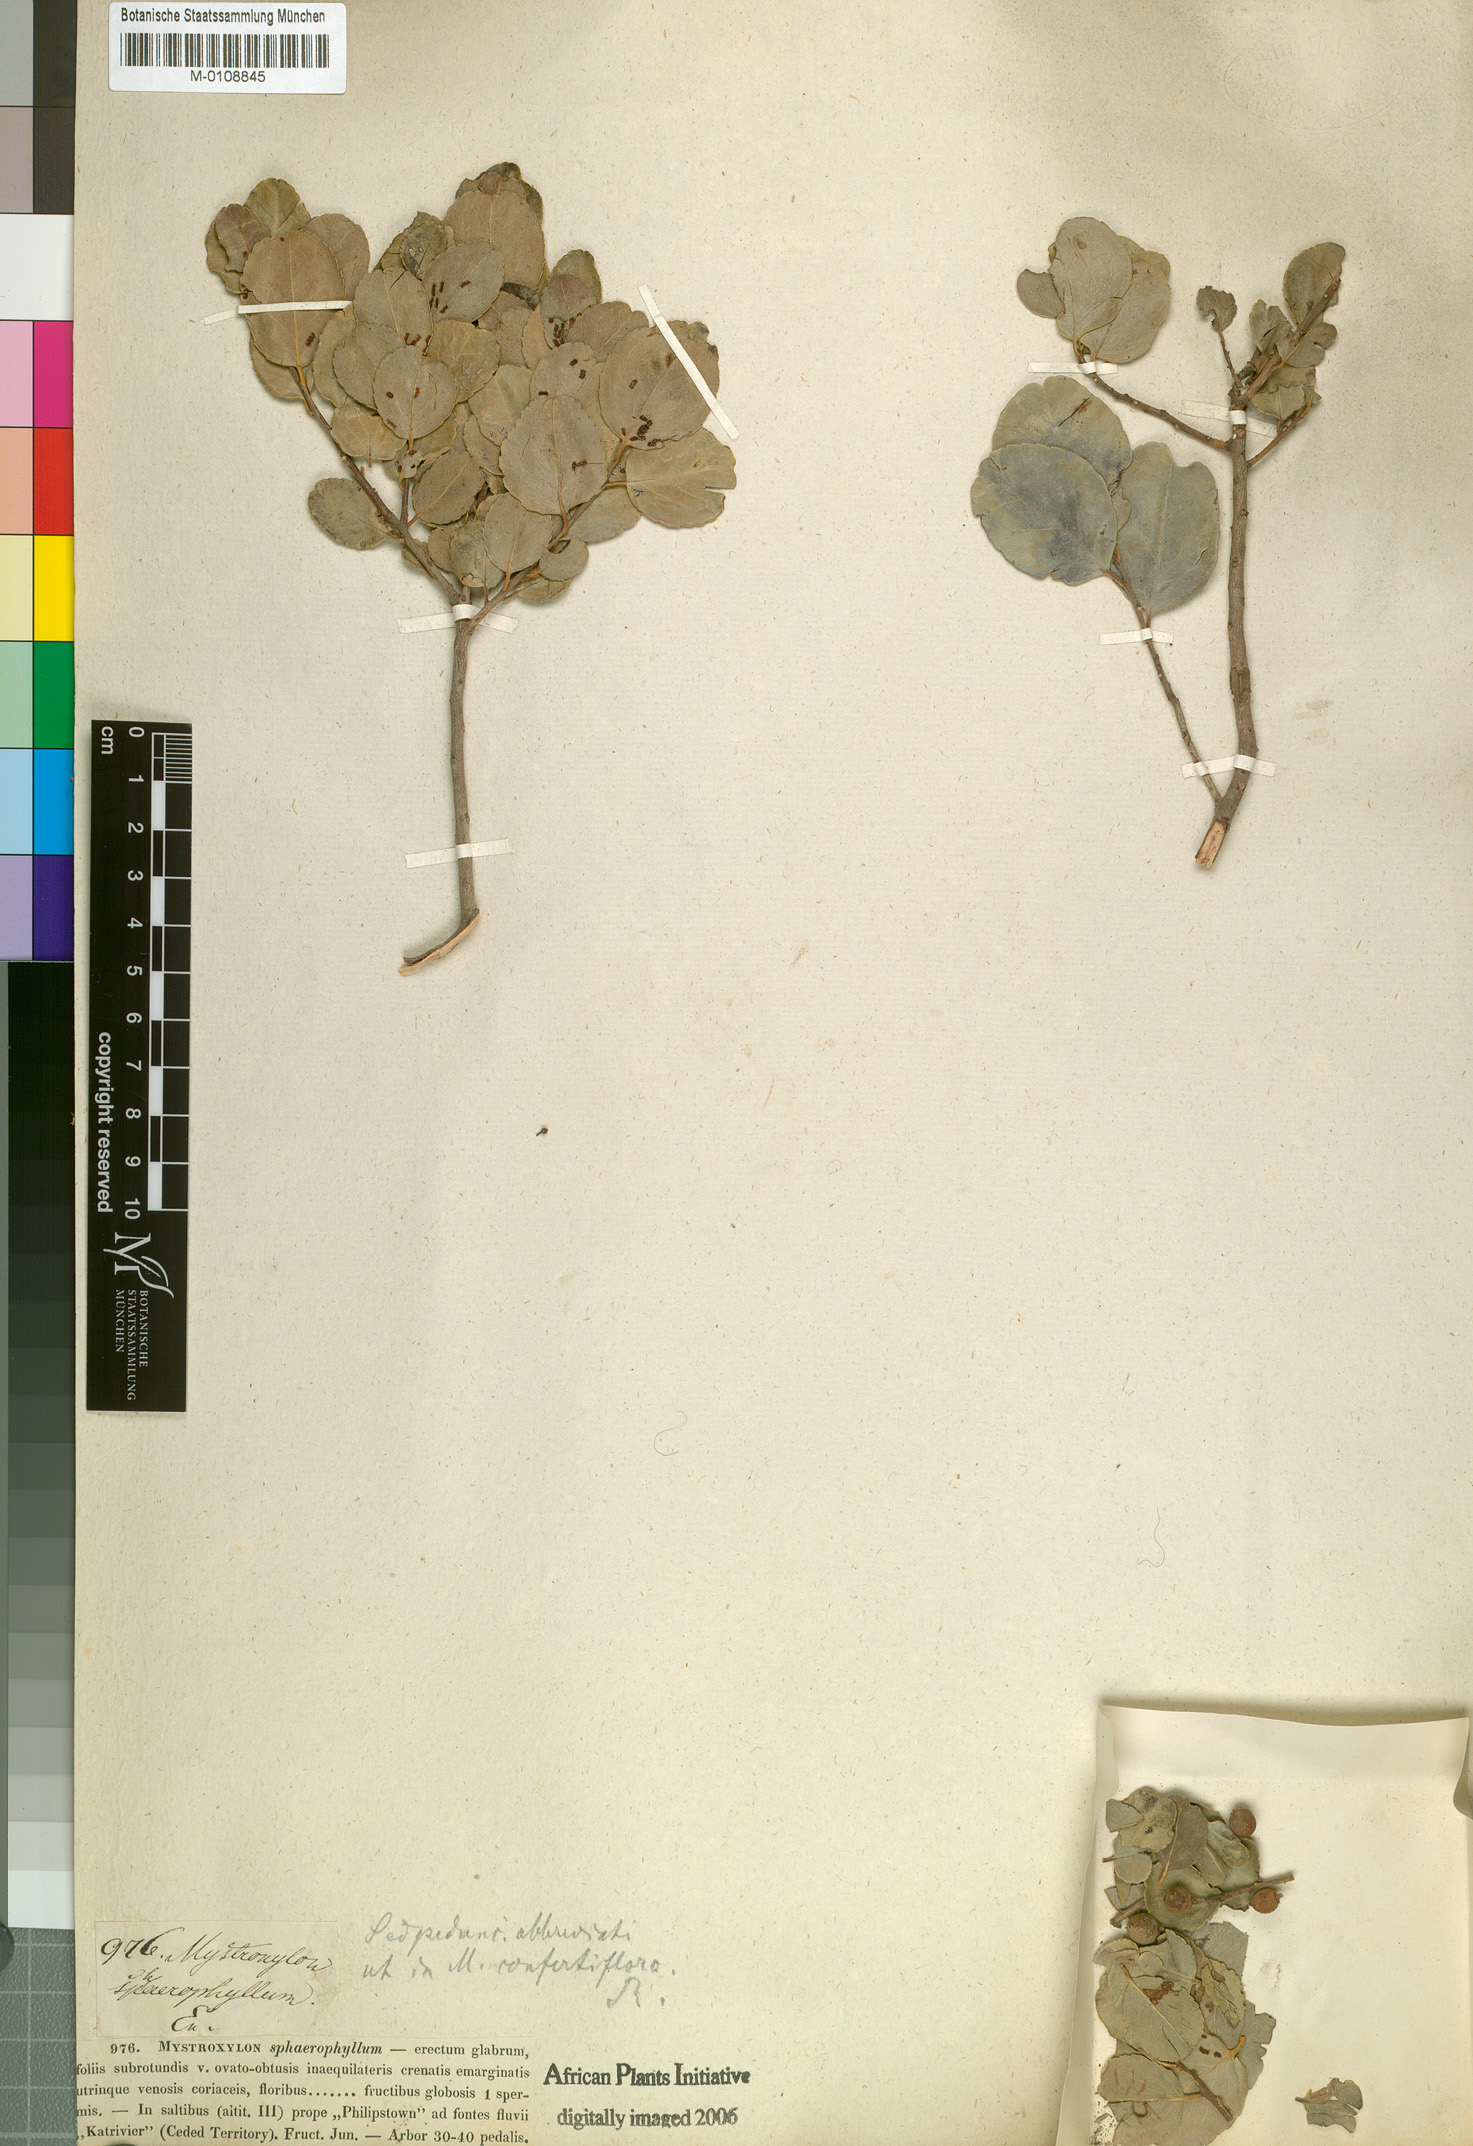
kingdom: Plantae
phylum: Tracheophyta
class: Magnoliopsida
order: Celastrales
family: Celastraceae
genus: Mystroxylon
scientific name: Mystroxylon aethiopicum
